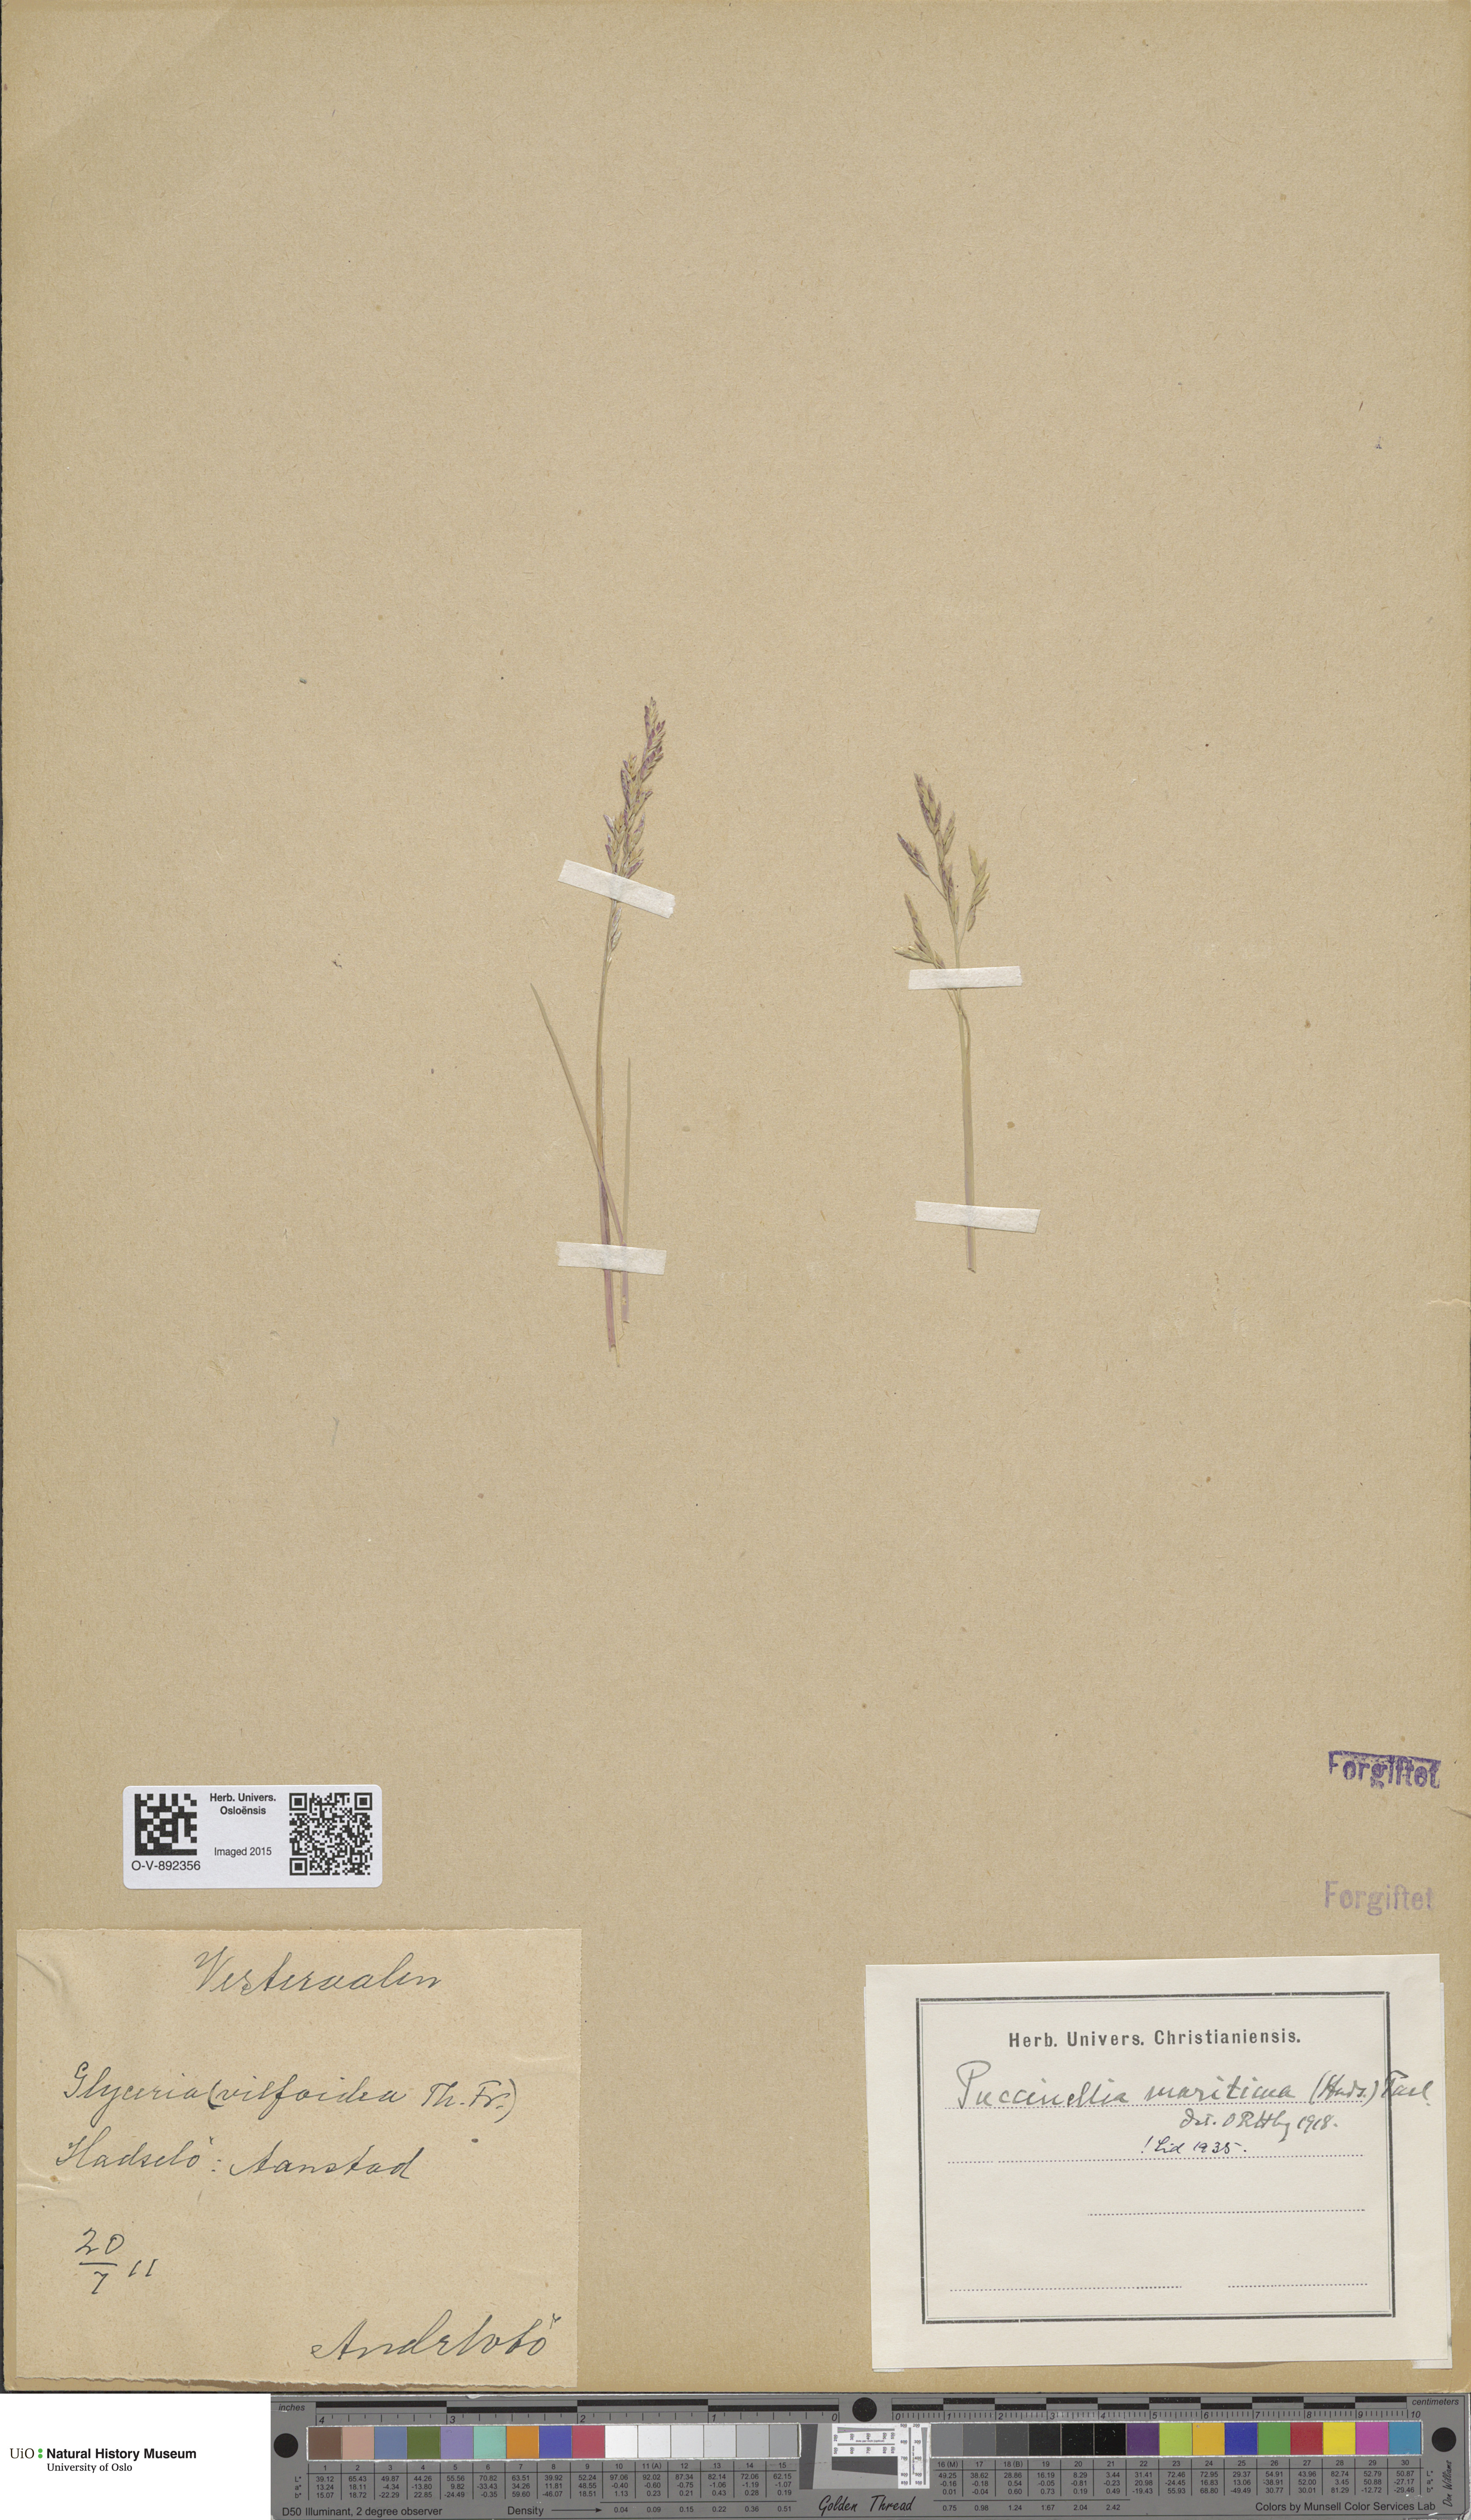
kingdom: Plantae
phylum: Tracheophyta
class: Liliopsida
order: Poales
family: Poaceae
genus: Puccinellia
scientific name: Puccinellia maritima
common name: Common saltmarsh grass
